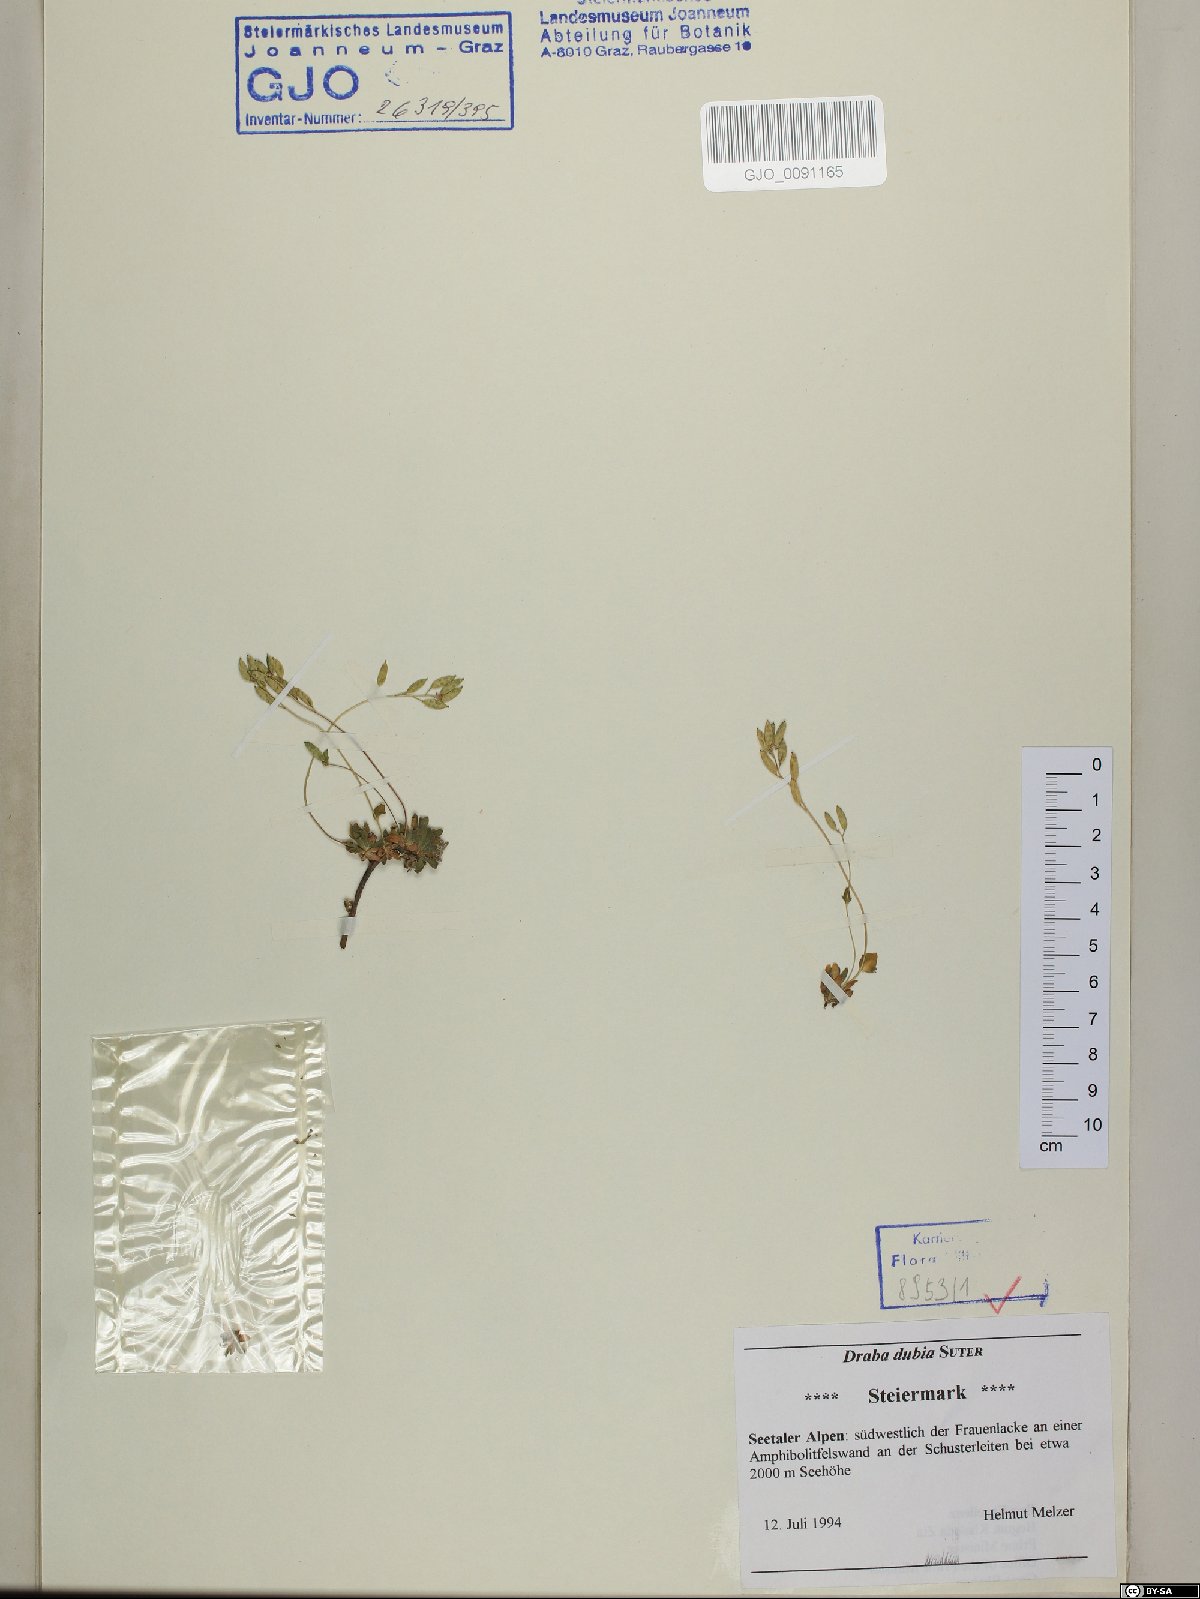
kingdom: Plantae
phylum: Tracheophyta
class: Magnoliopsida
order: Brassicales
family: Brassicaceae
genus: Draba
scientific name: Draba dubia
